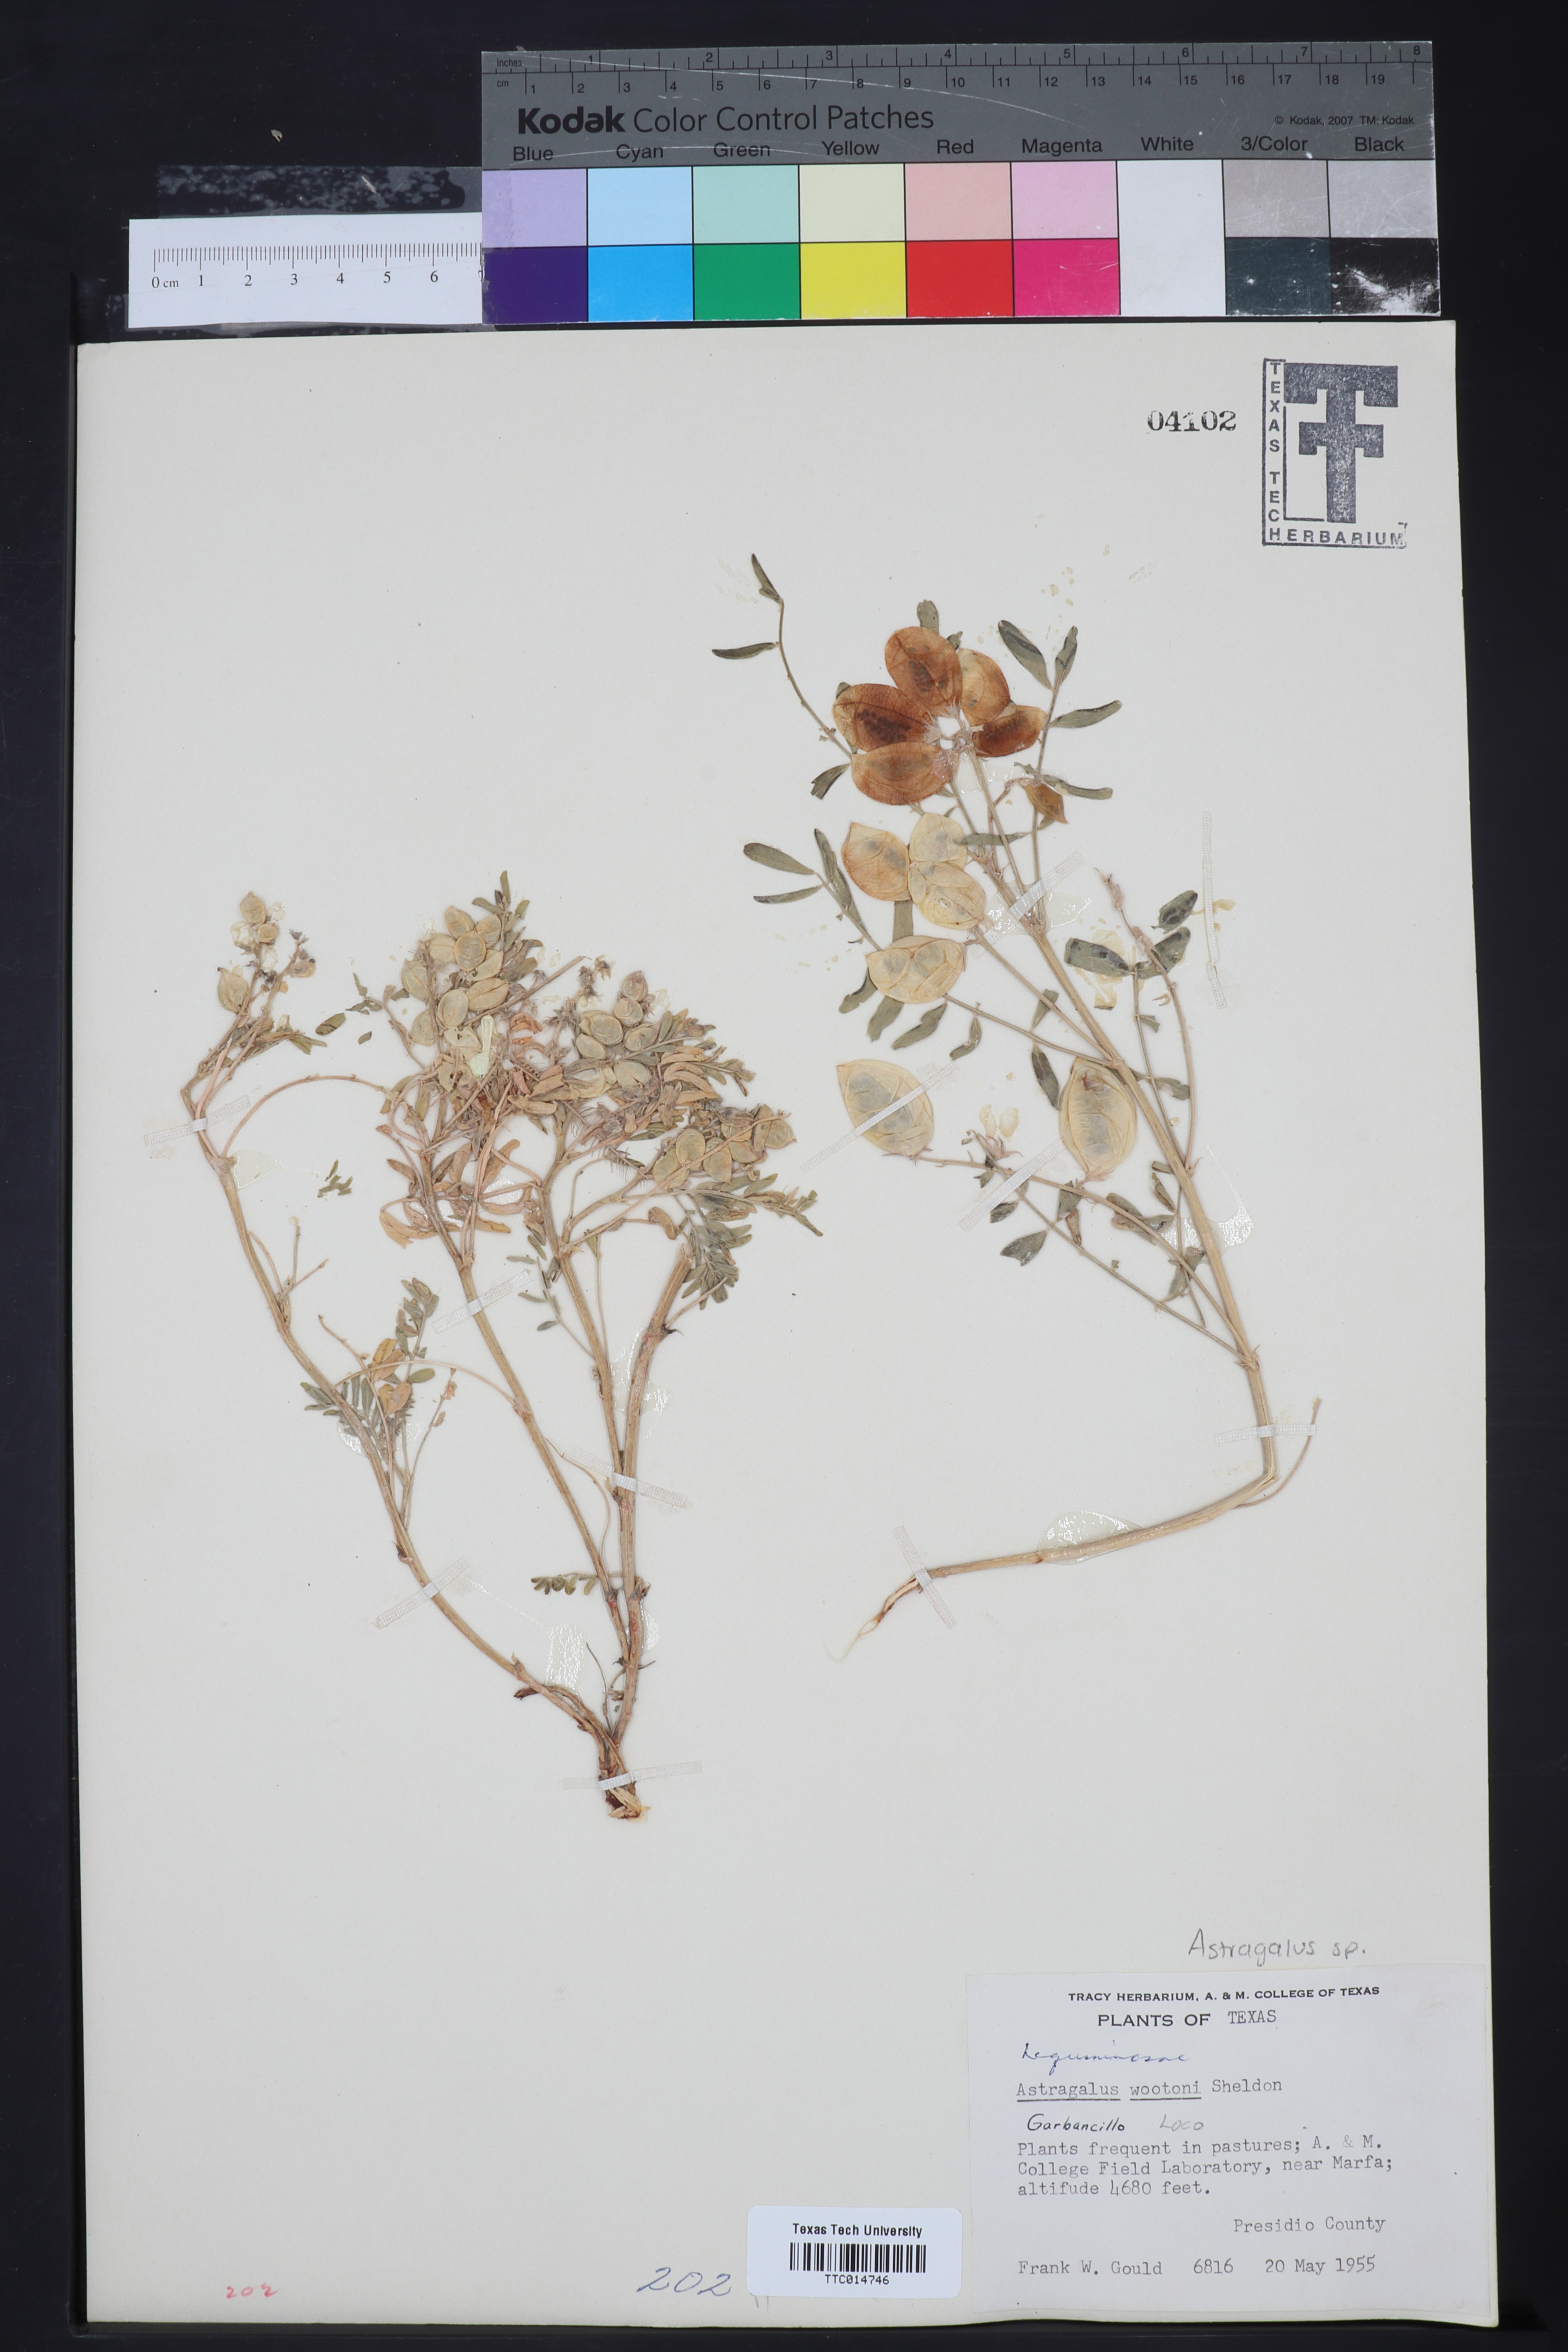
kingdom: Plantae
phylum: Tracheophyta
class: Magnoliopsida
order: Fabales
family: Fabaceae
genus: Astragalus
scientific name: Astragalus wootonii
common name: Wooton's milk-vetch
